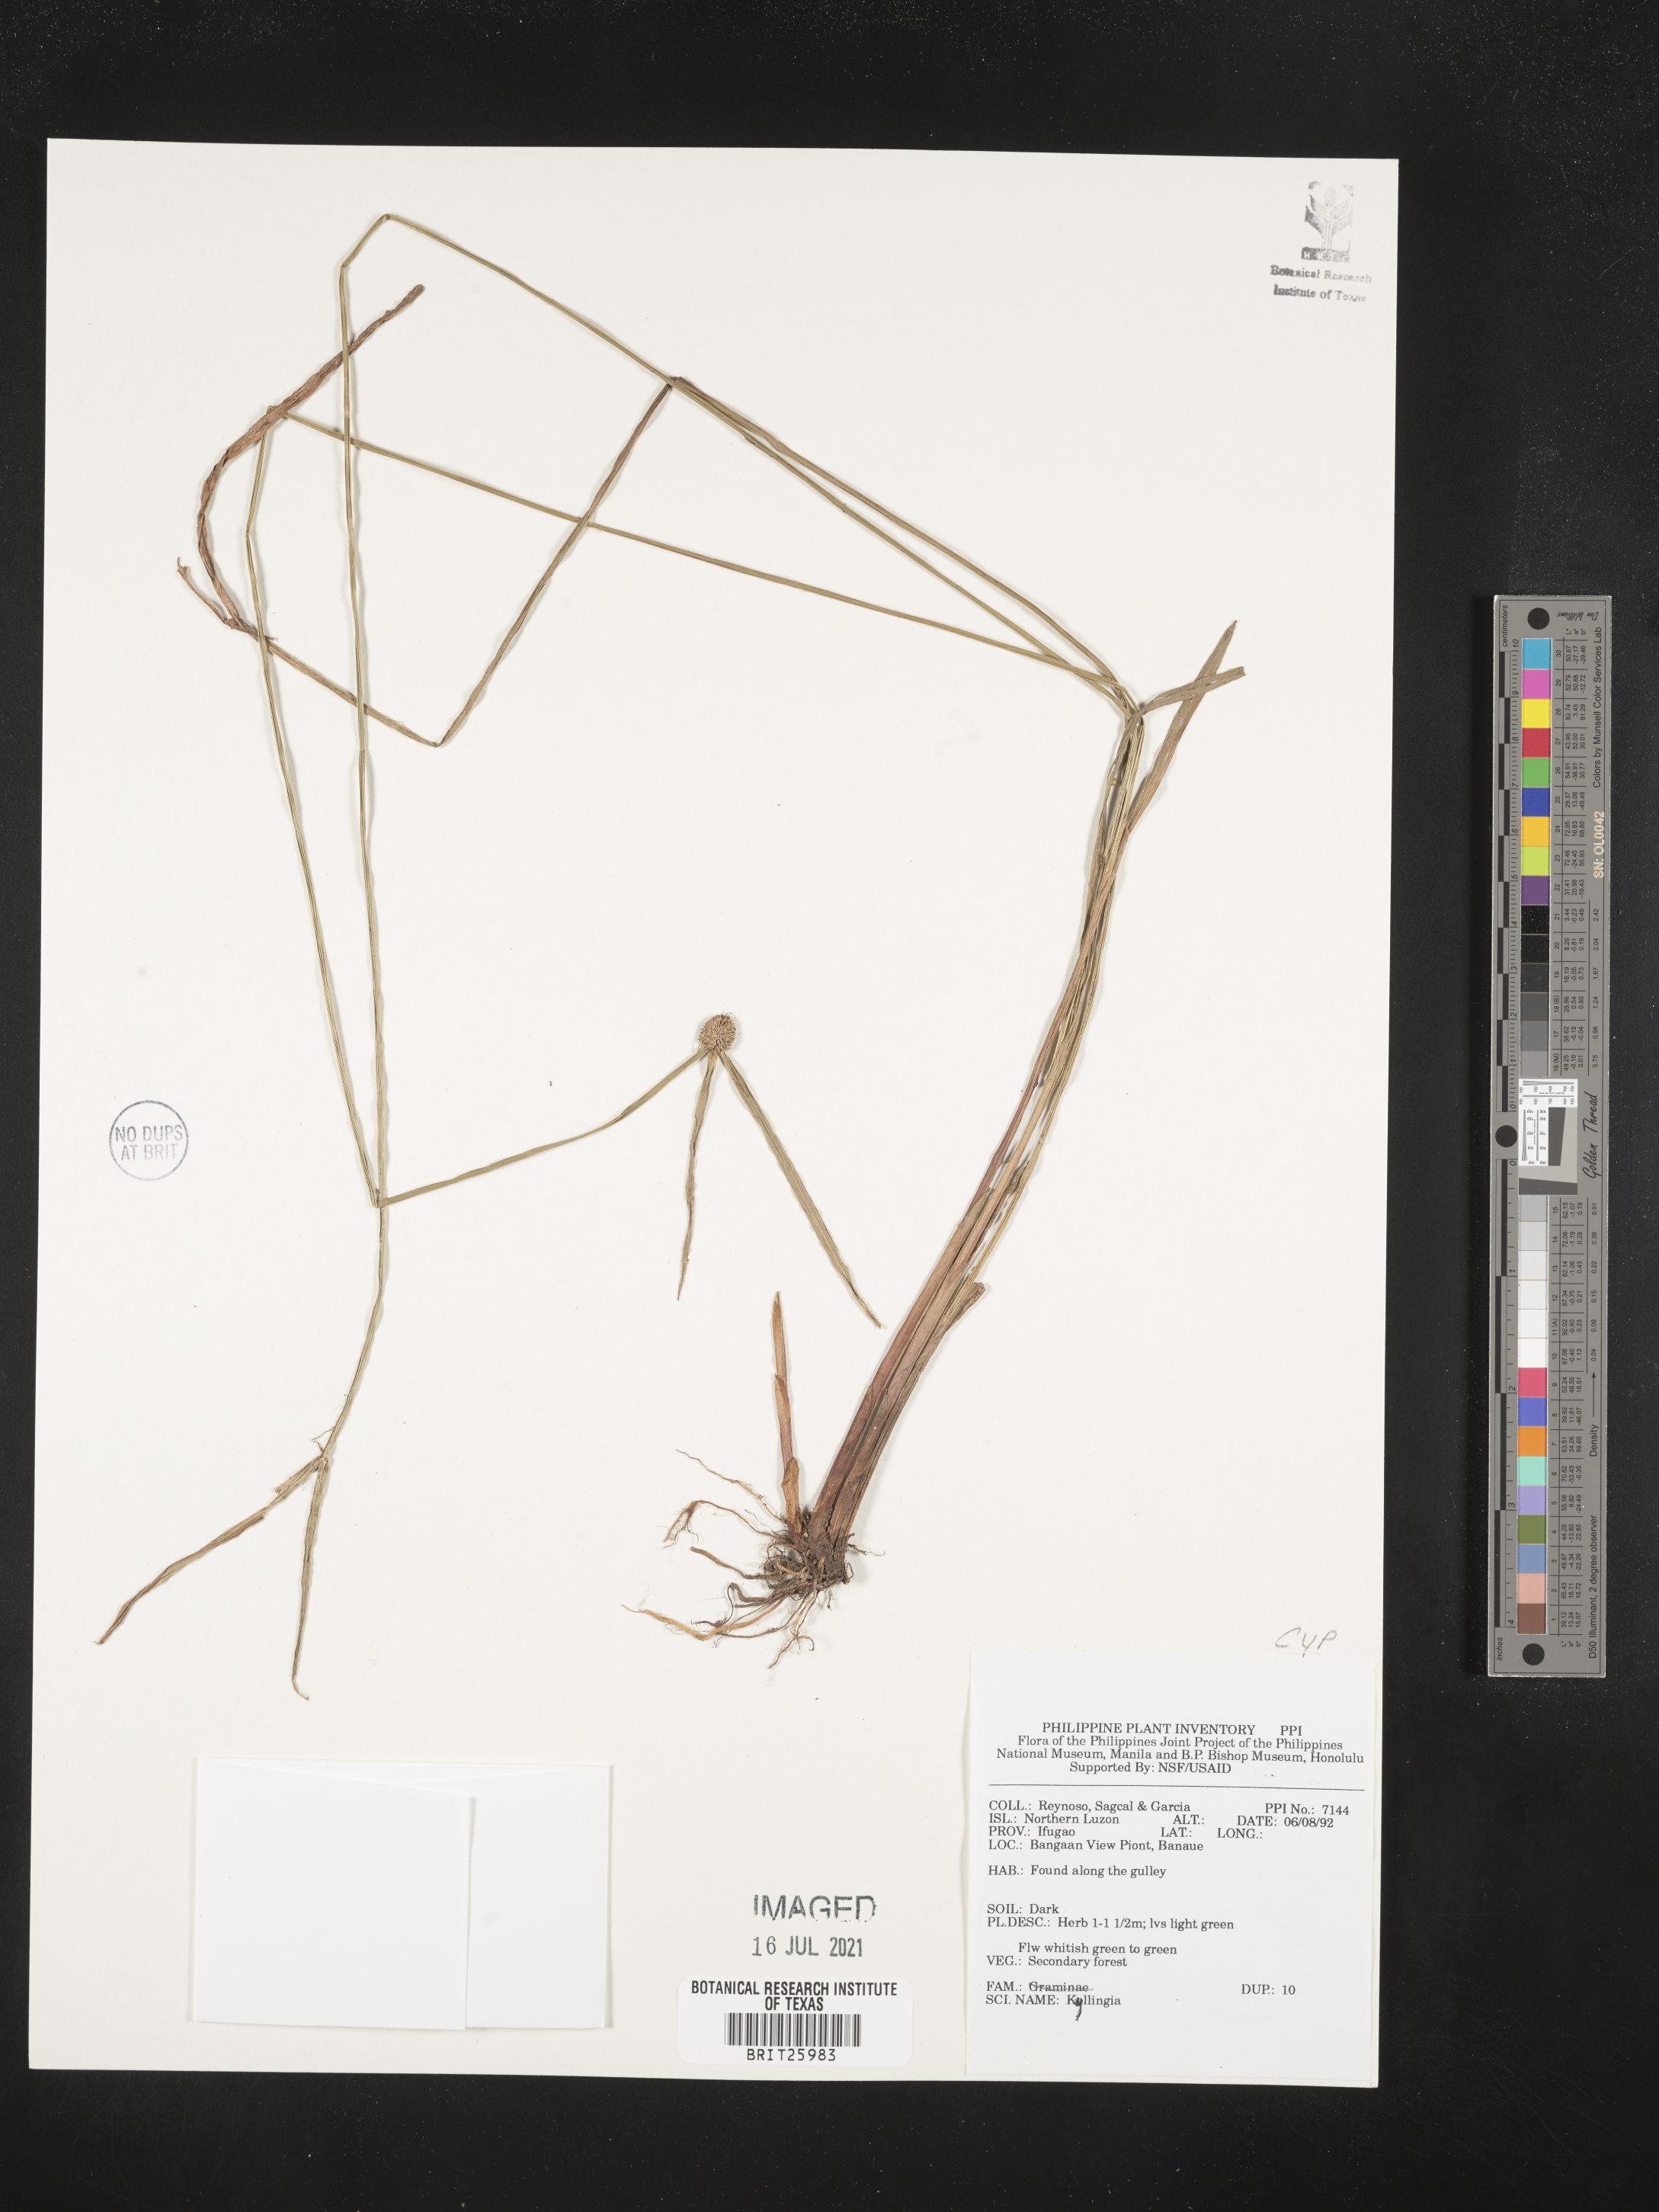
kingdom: Plantae
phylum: Tracheophyta
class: Liliopsida
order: Poales
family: Cyperaceae
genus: Cyperus
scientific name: Cyperus
